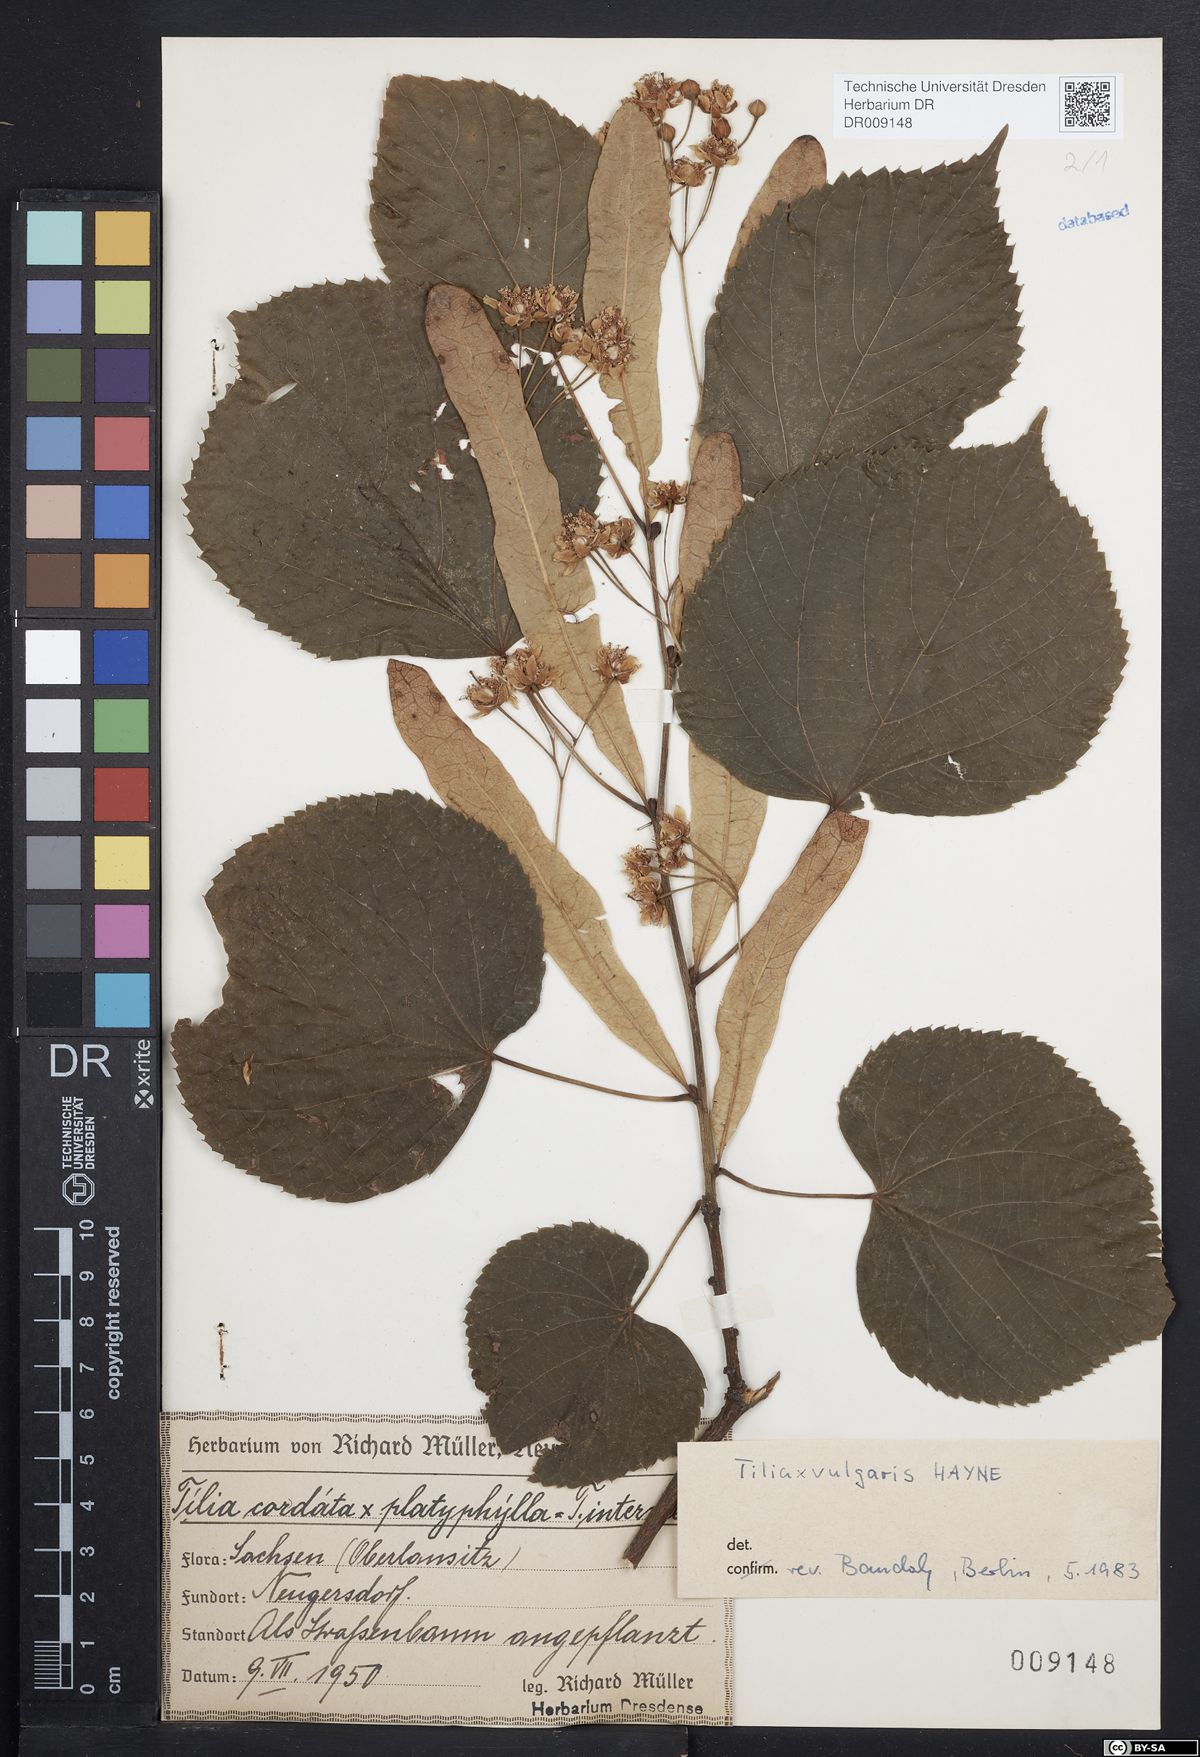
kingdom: Plantae
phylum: Tracheophyta
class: Magnoliopsida
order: Malvales
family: Malvaceae
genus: Tilia
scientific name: Tilia europaea
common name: European linden
